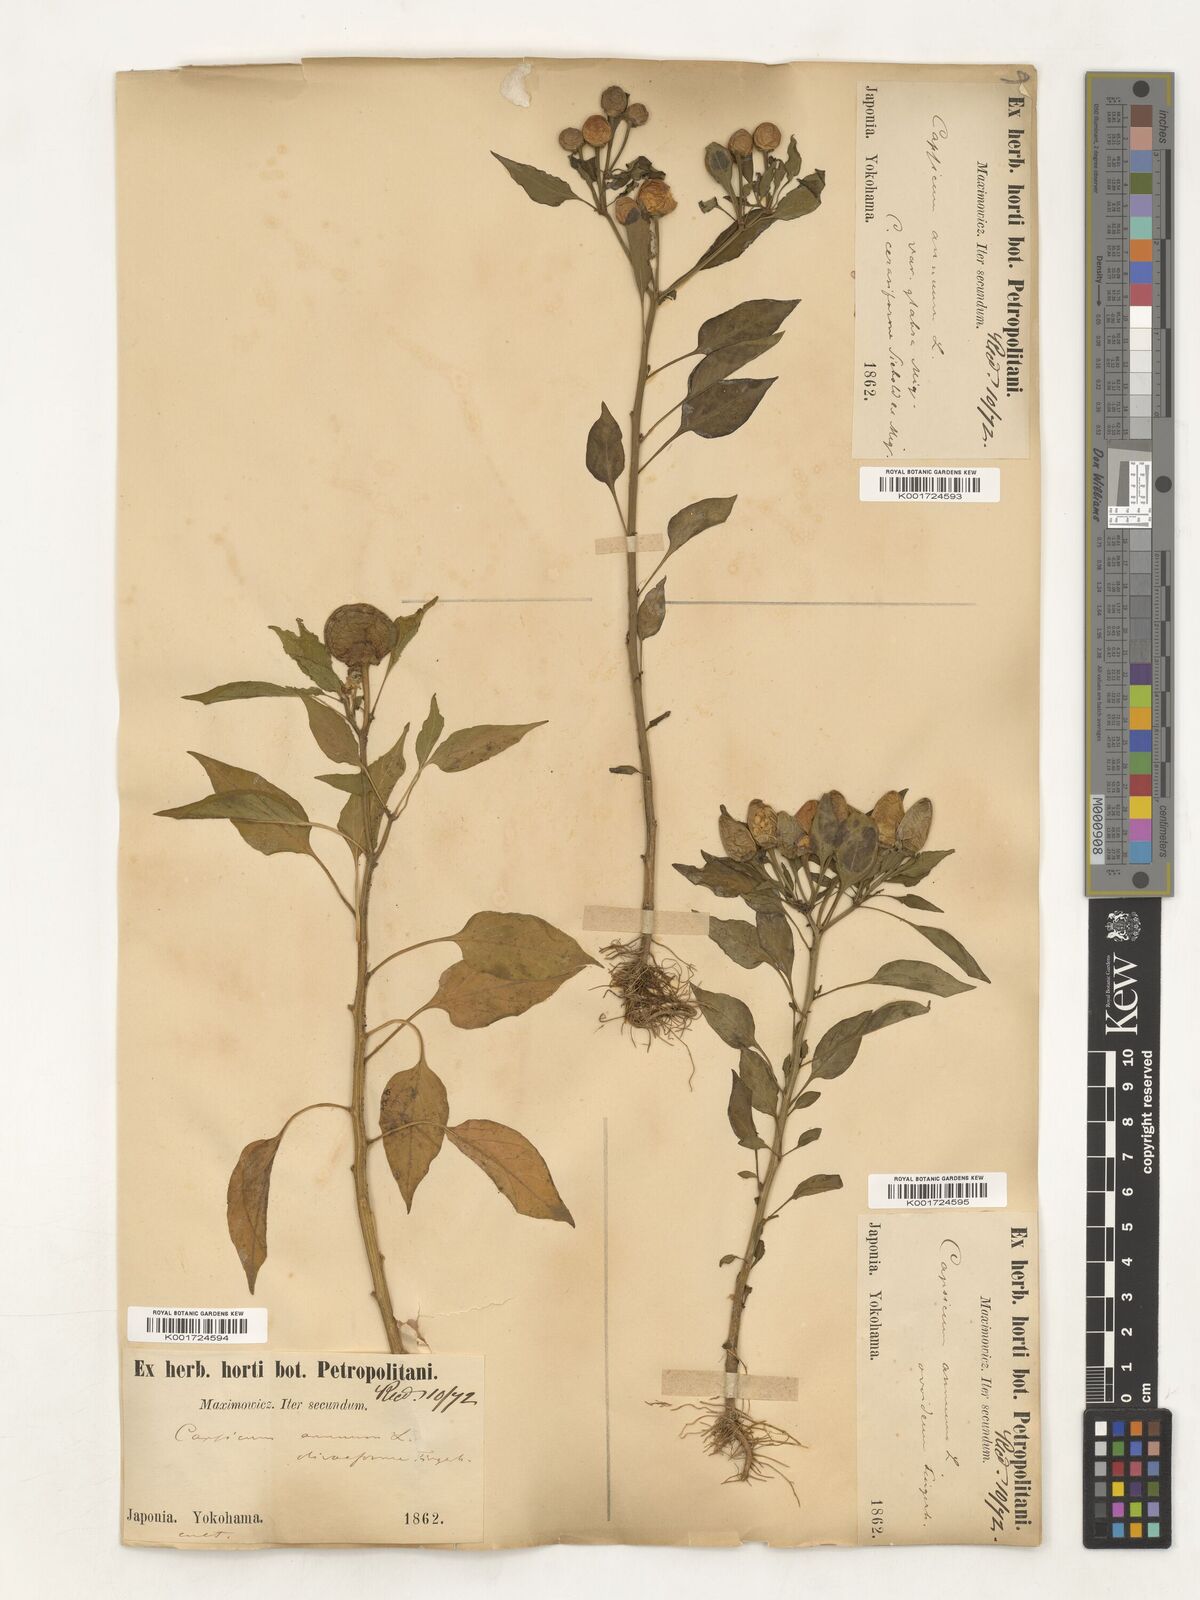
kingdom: Plantae
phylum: Tracheophyta
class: Magnoliopsida
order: Solanales
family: Solanaceae
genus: Capsicum
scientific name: Capsicum annuum
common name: Sweet pepper
